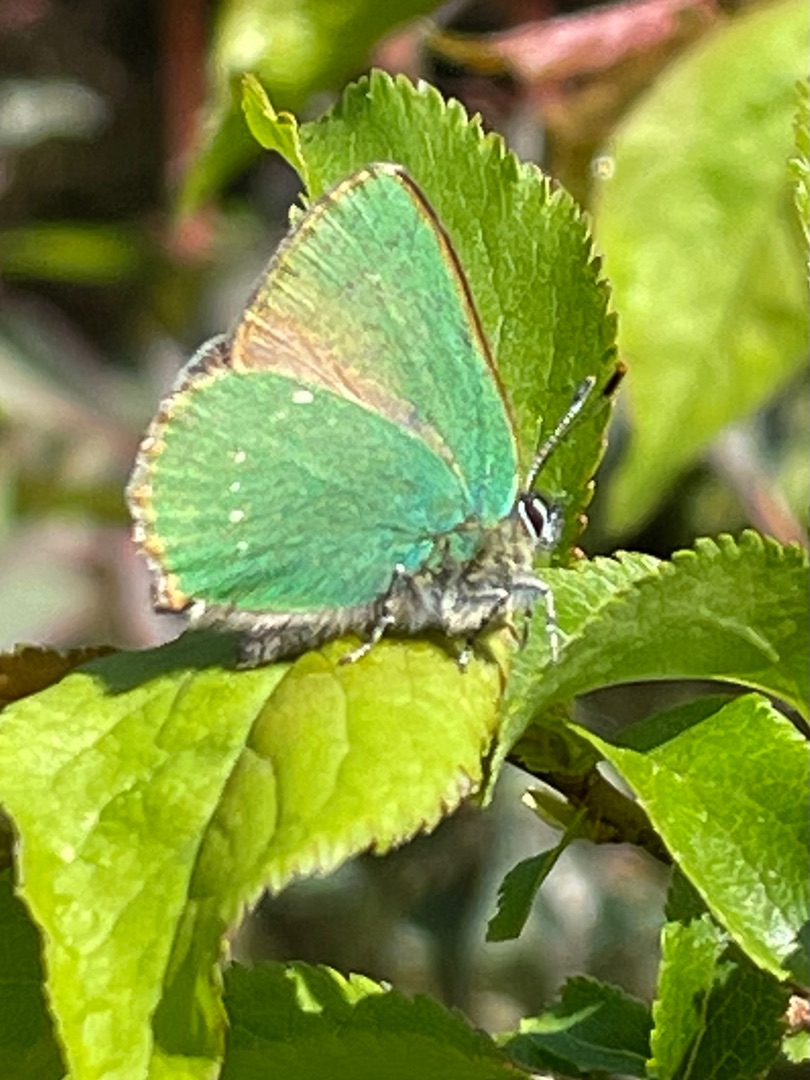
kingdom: Animalia
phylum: Arthropoda
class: Insecta
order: Lepidoptera
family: Lycaenidae
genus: Callophrys
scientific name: Callophrys rubi
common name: Grøn busksommerfugl
